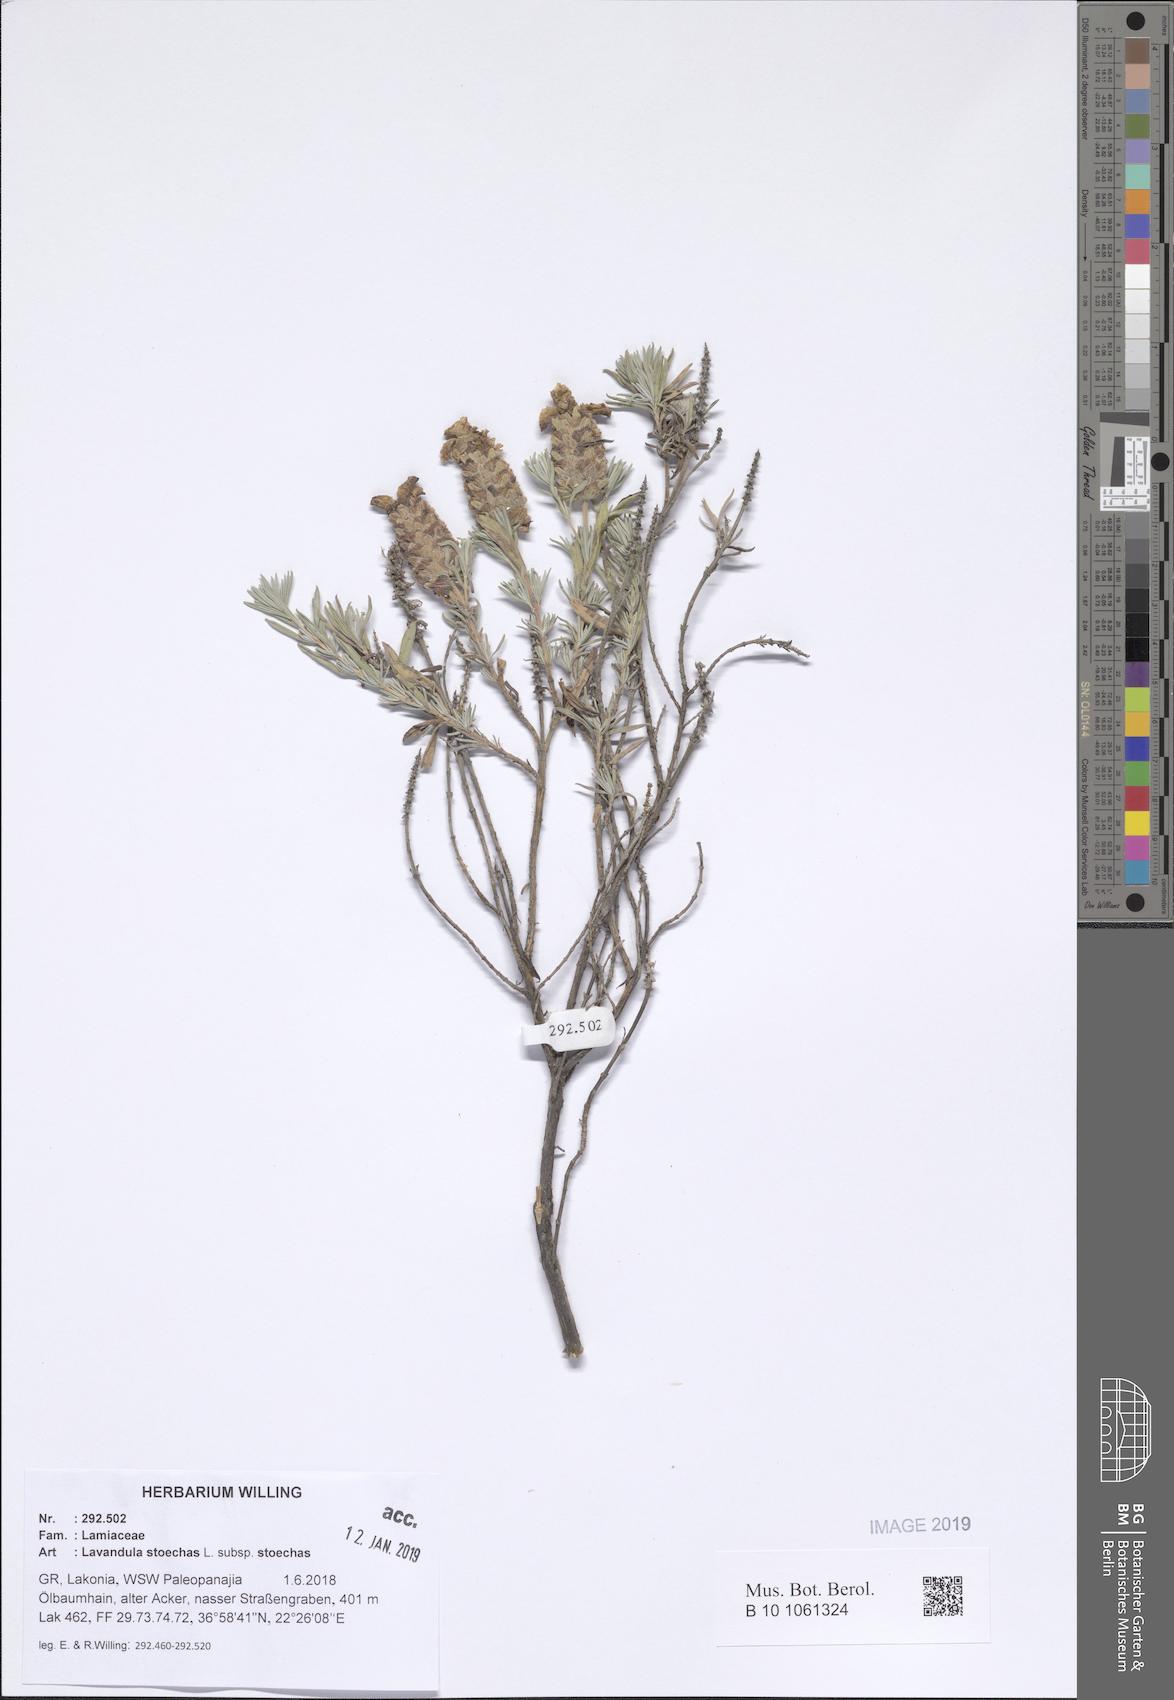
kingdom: Plantae
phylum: Tracheophyta
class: Magnoliopsida
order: Lamiales
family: Lamiaceae
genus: Lavandula
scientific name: Lavandula stoechas
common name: French lavender
